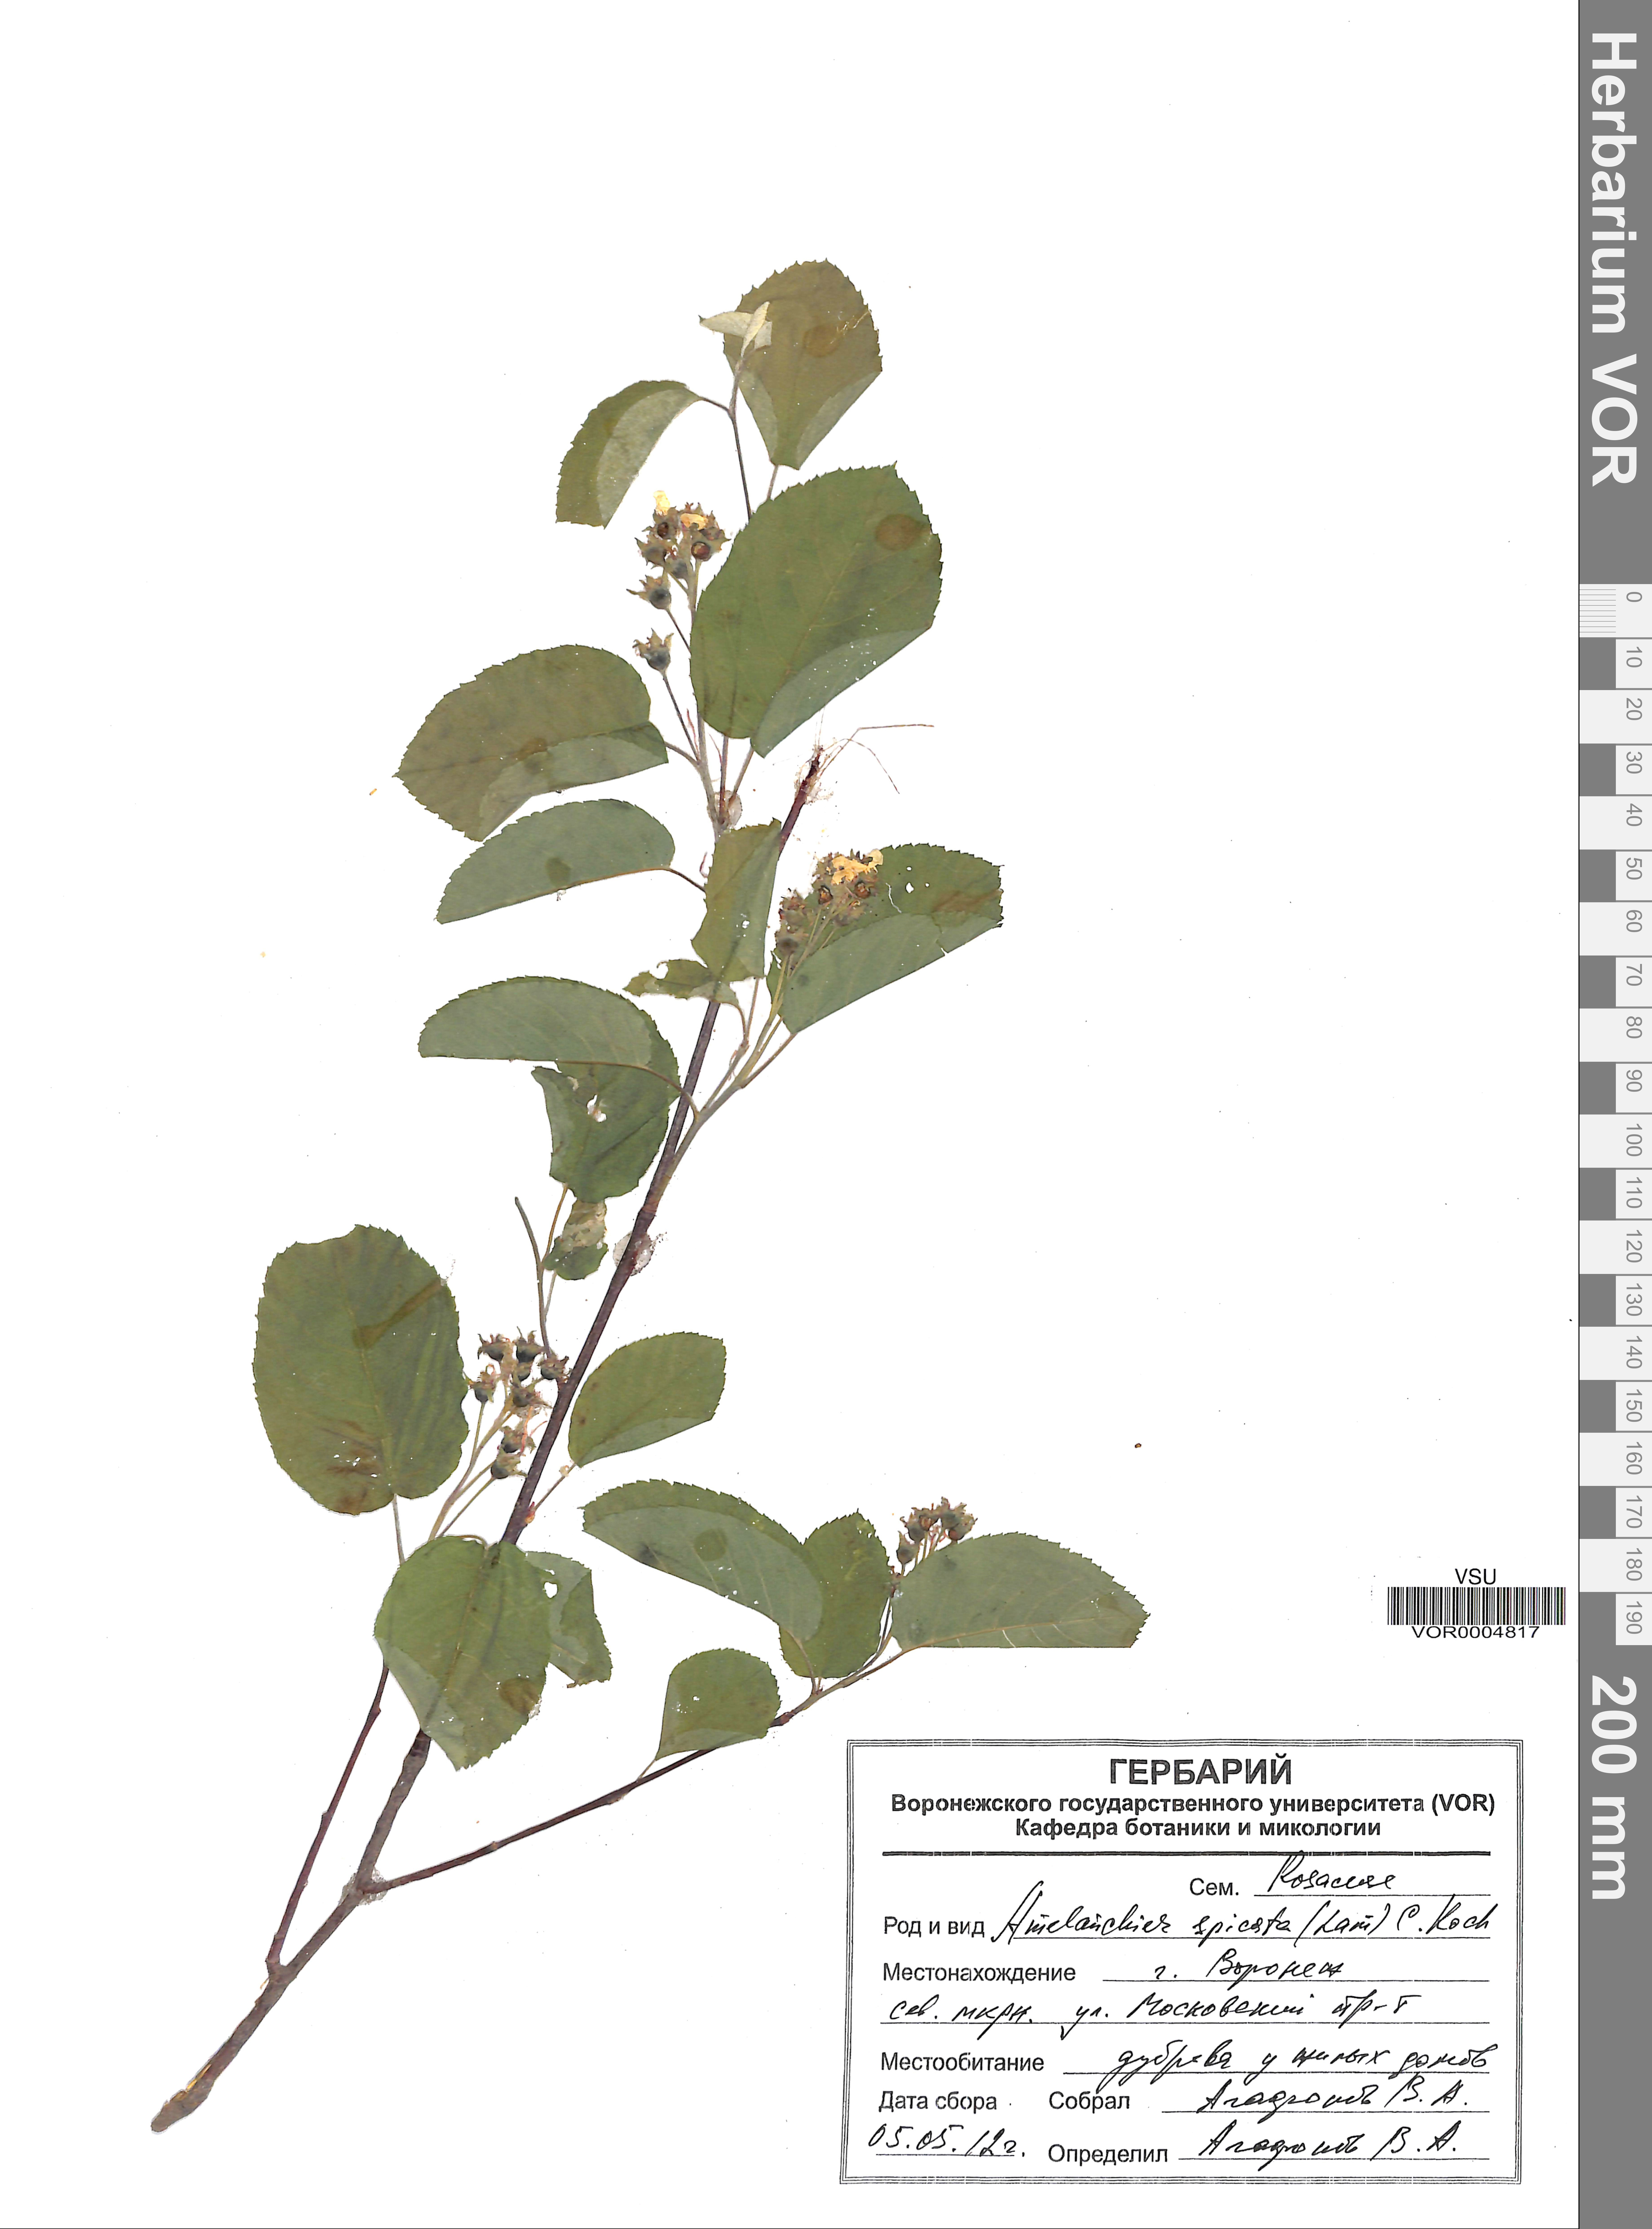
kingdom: Plantae
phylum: Tracheophyta
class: Magnoliopsida
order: Rosales
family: Rosaceae
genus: Amelanchier
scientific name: Amelanchier humilis
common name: Low juneberry
